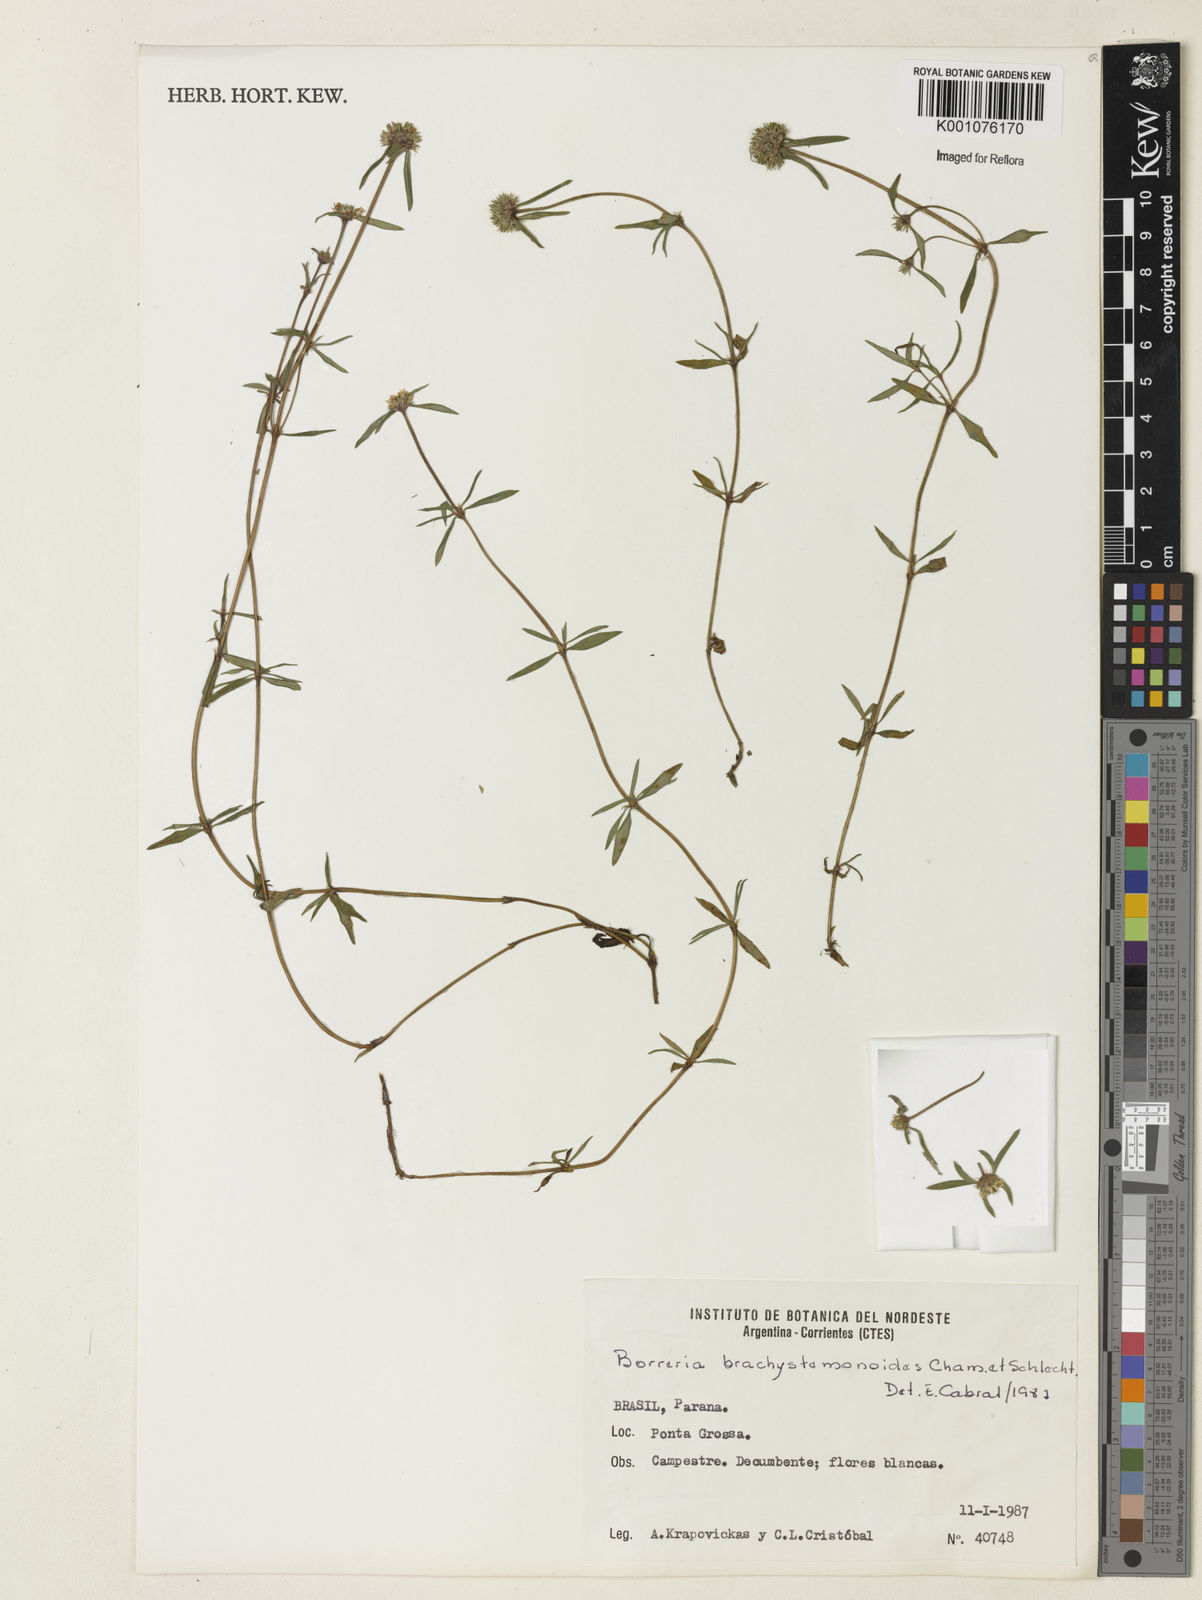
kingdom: Plantae
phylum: Tracheophyta
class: Magnoliopsida
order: Gentianales
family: Rubiaceae
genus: Spermacoce
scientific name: Spermacoce brachystemonoides
